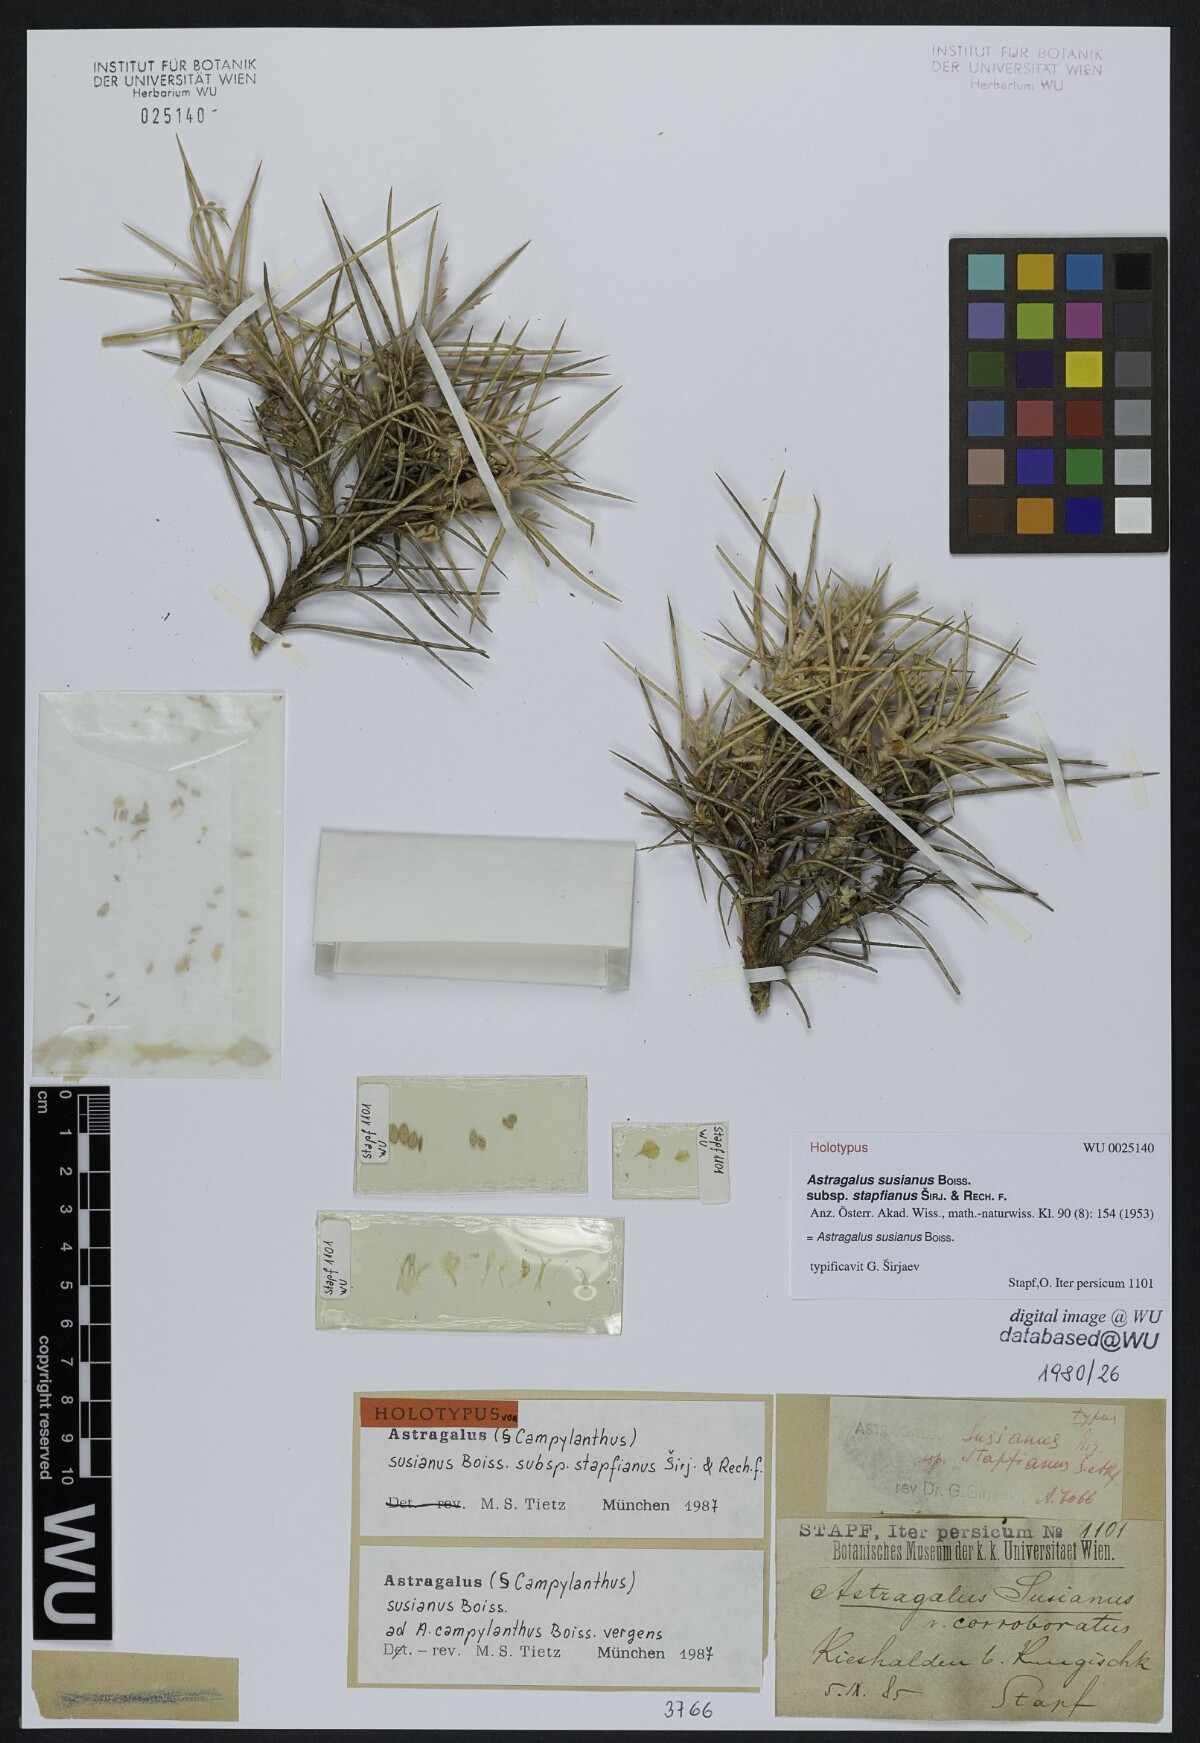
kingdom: Plantae
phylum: Tracheophyta
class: Magnoliopsida
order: Fabales
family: Fabaceae
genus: Astragalus
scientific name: Astragalus susianus
